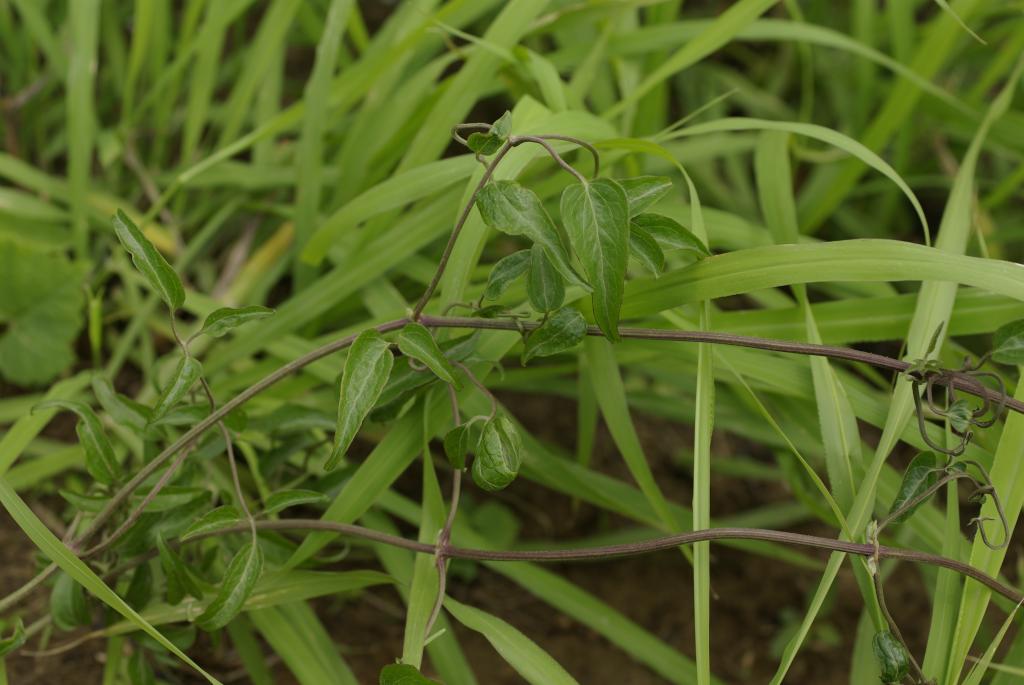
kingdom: Plantae
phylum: Tracheophyta
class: Magnoliopsida
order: Ranunculales
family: Ranunculaceae
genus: Clematis
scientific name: Clematis chinensis
